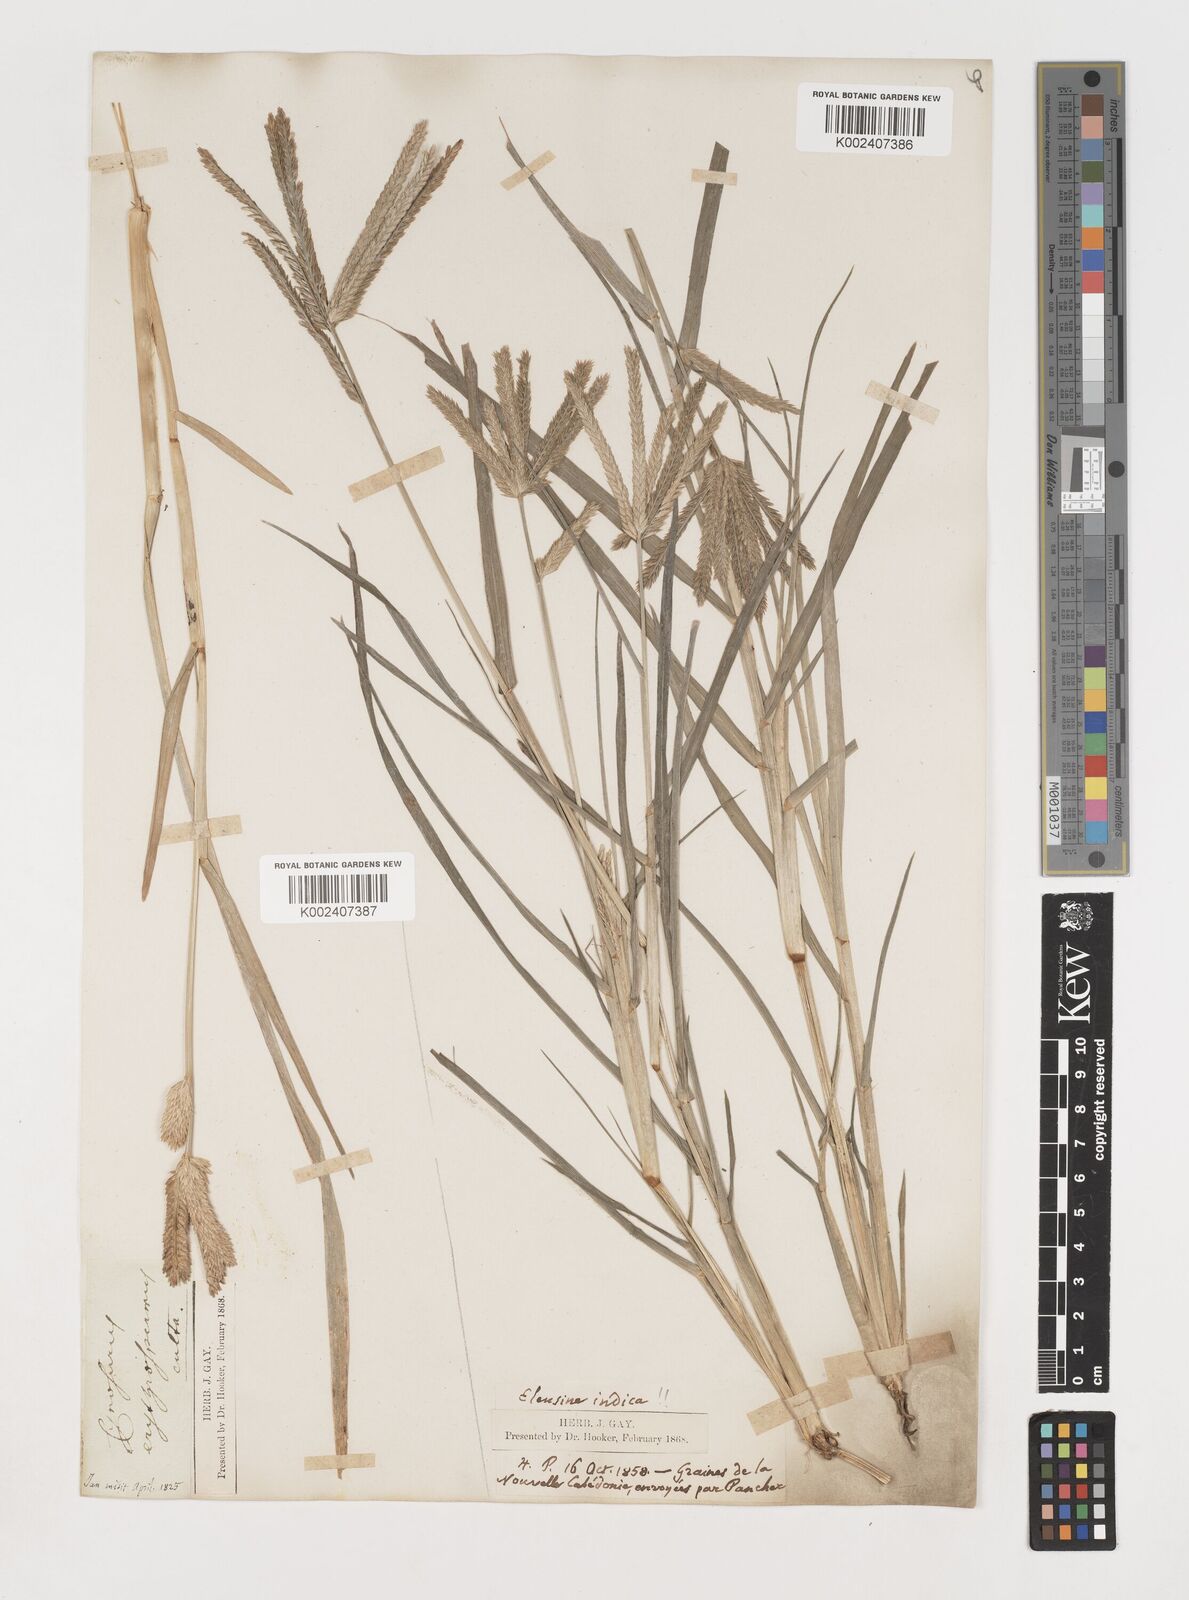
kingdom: Plantae
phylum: Tracheophyta
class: Liliopsida
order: Poales
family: Poaceae
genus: Eleusine
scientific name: Eleusine indica
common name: Yard-grass
